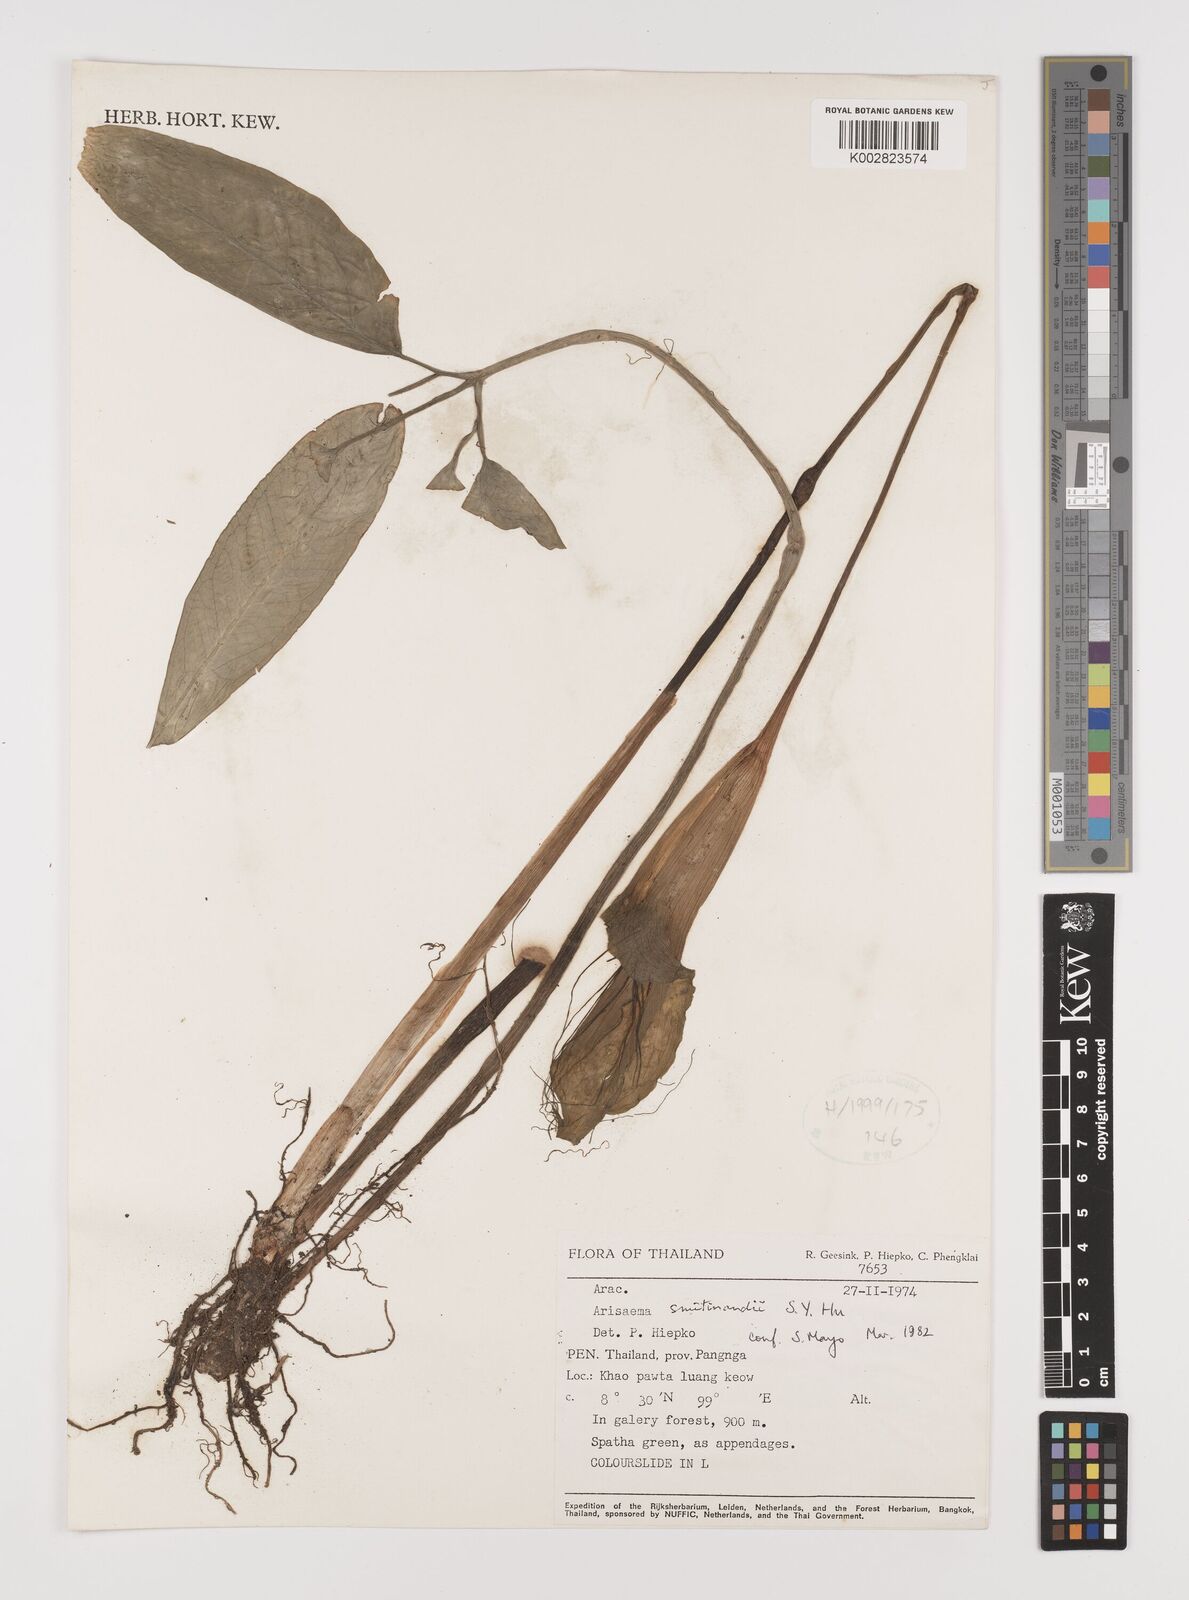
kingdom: Plantae
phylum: Tracheophyta
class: Liliopsida
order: Alismatales
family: Araceae
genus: Arisaema
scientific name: Arisaema chumponense
